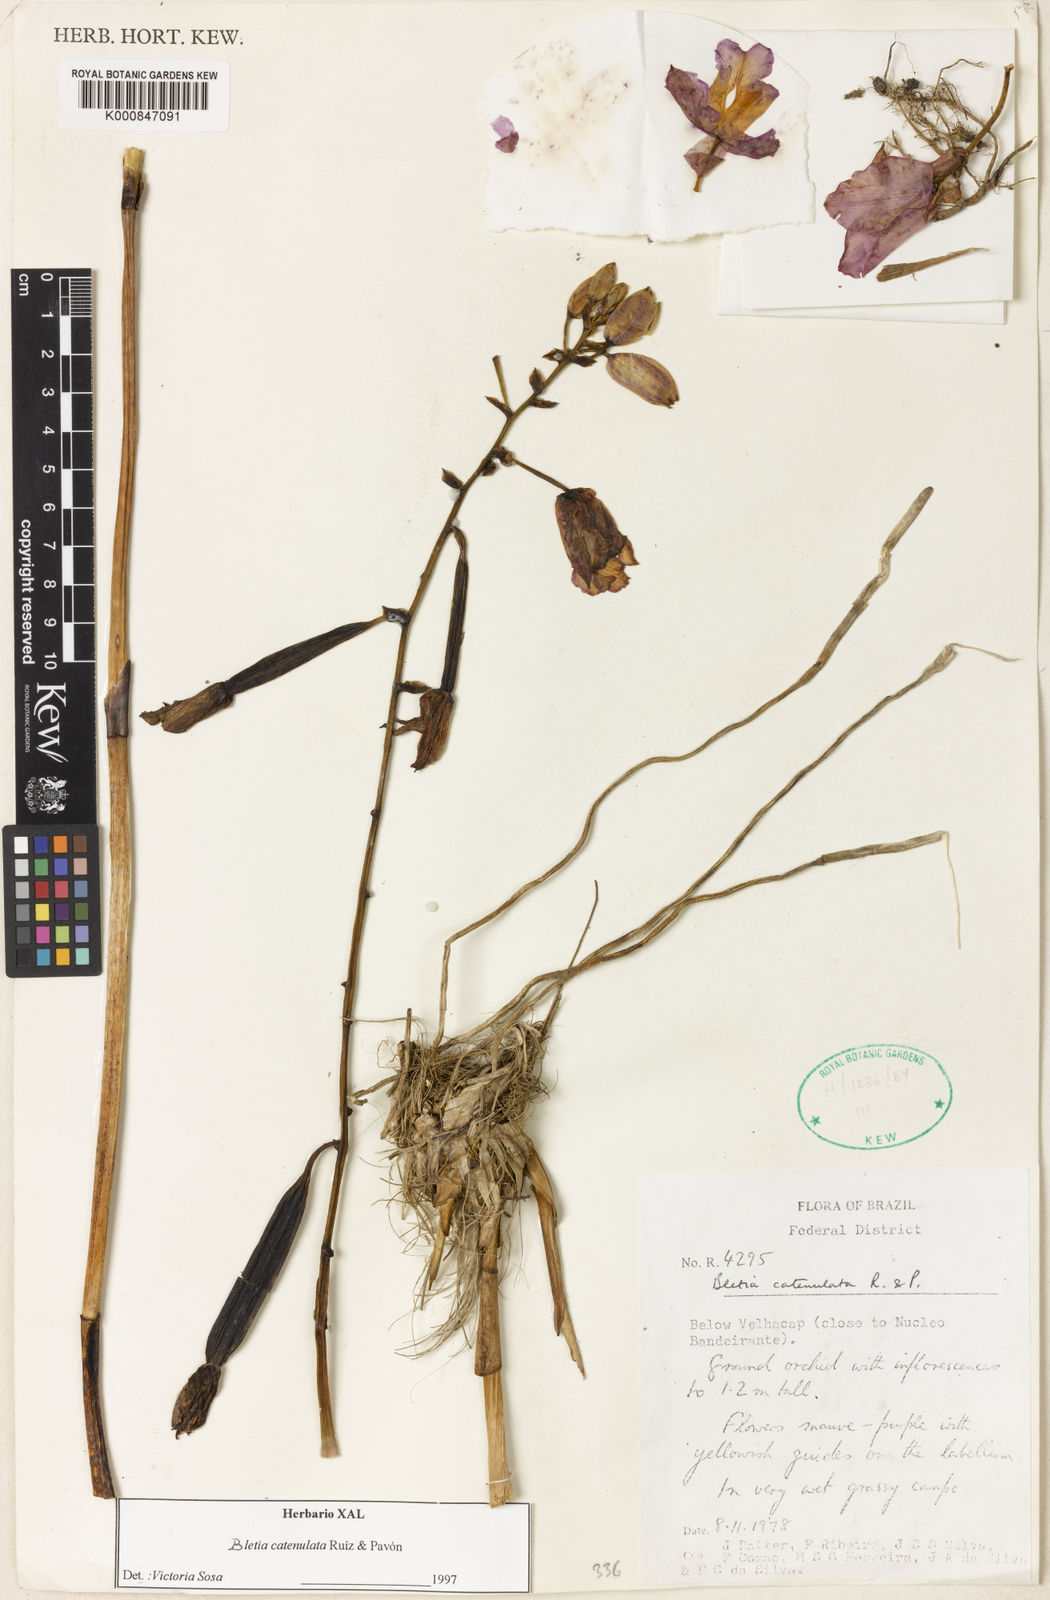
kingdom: Plantae
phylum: Tracheophyta
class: Liliopsida
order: Asparagales
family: Orchidaceae
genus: Bletia
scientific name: Bletia
